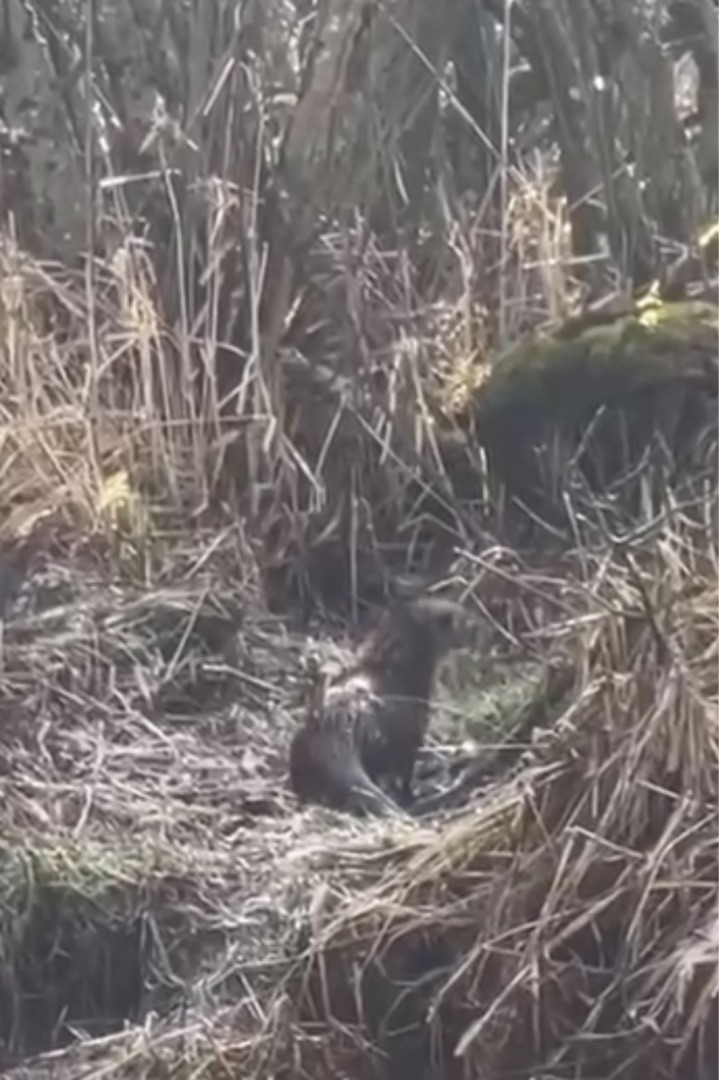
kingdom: Animalia
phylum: Chordata
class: Mammalia
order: Carnivora
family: Mustelidae
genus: Lutra
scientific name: Lutra lutra
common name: Odder
